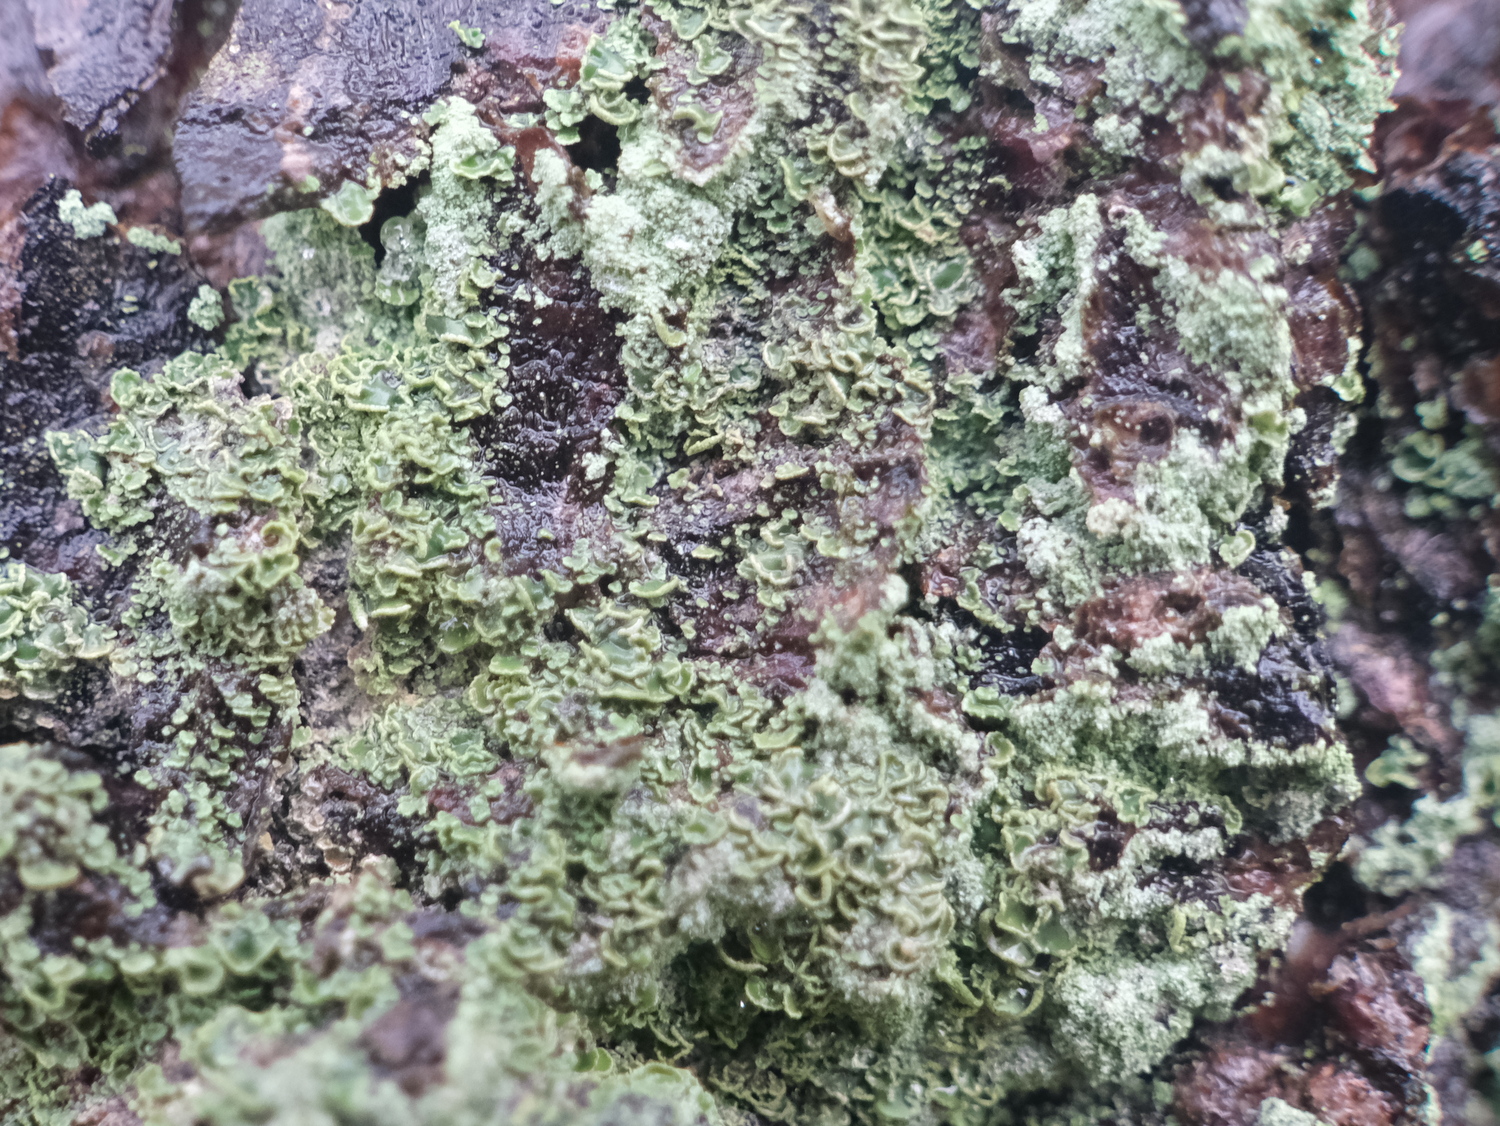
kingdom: Fungi
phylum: Ascomycota
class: Lecanoromycetes
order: Umbilicariales
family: Ophioparmaceae
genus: Hypocenomyce
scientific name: Hypocenomyce scalaris
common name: småskællet muslinglav
